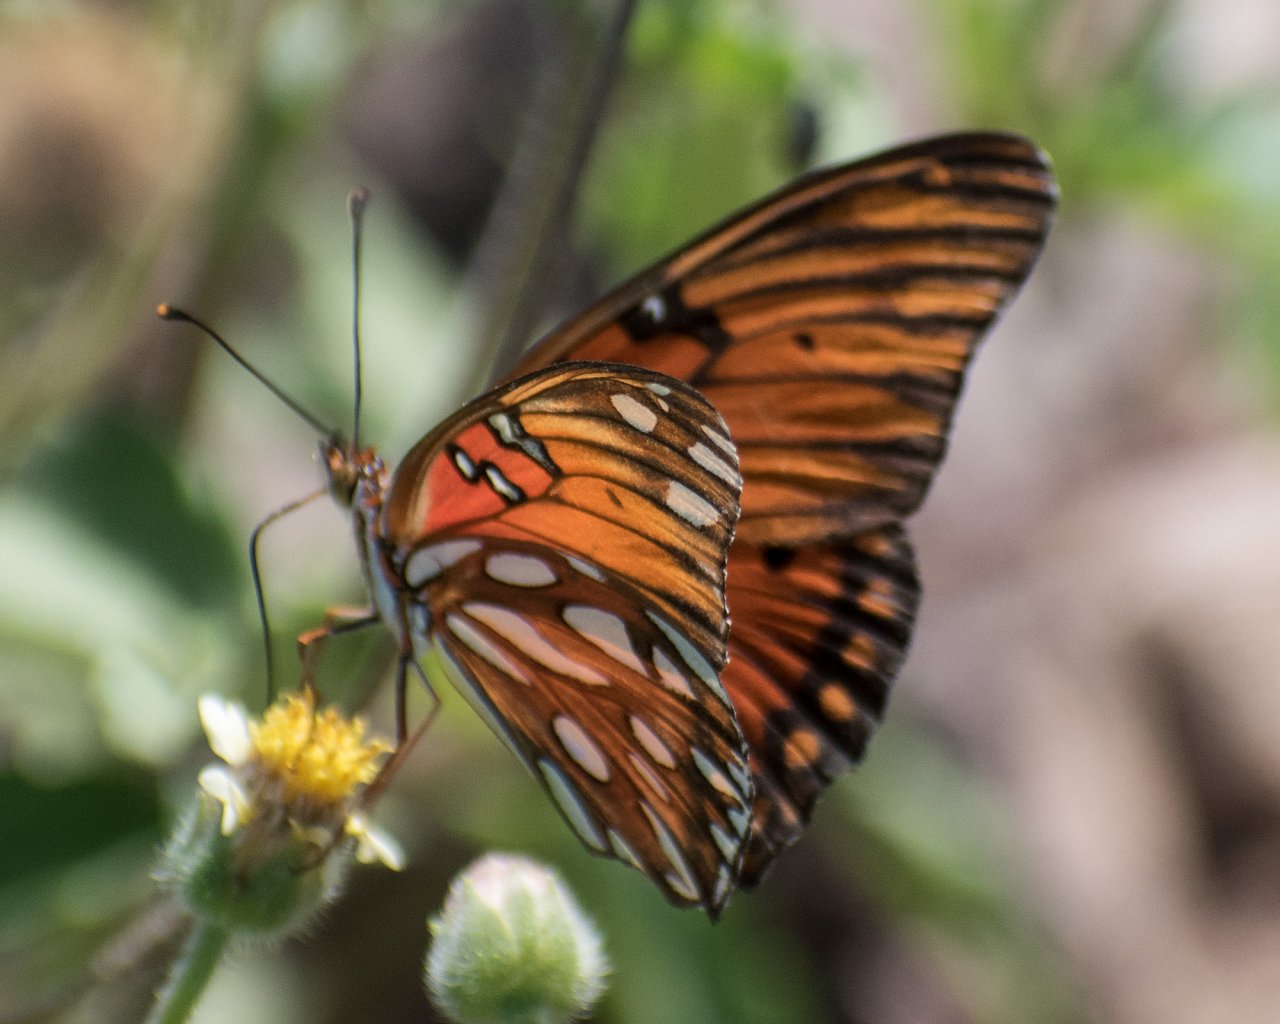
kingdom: Animalia
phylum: Arthropoda
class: Insecta
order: Lepidoptera
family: Nymphalidae
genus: Dione
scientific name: Dione vanillae
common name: Gulf Fritillary
